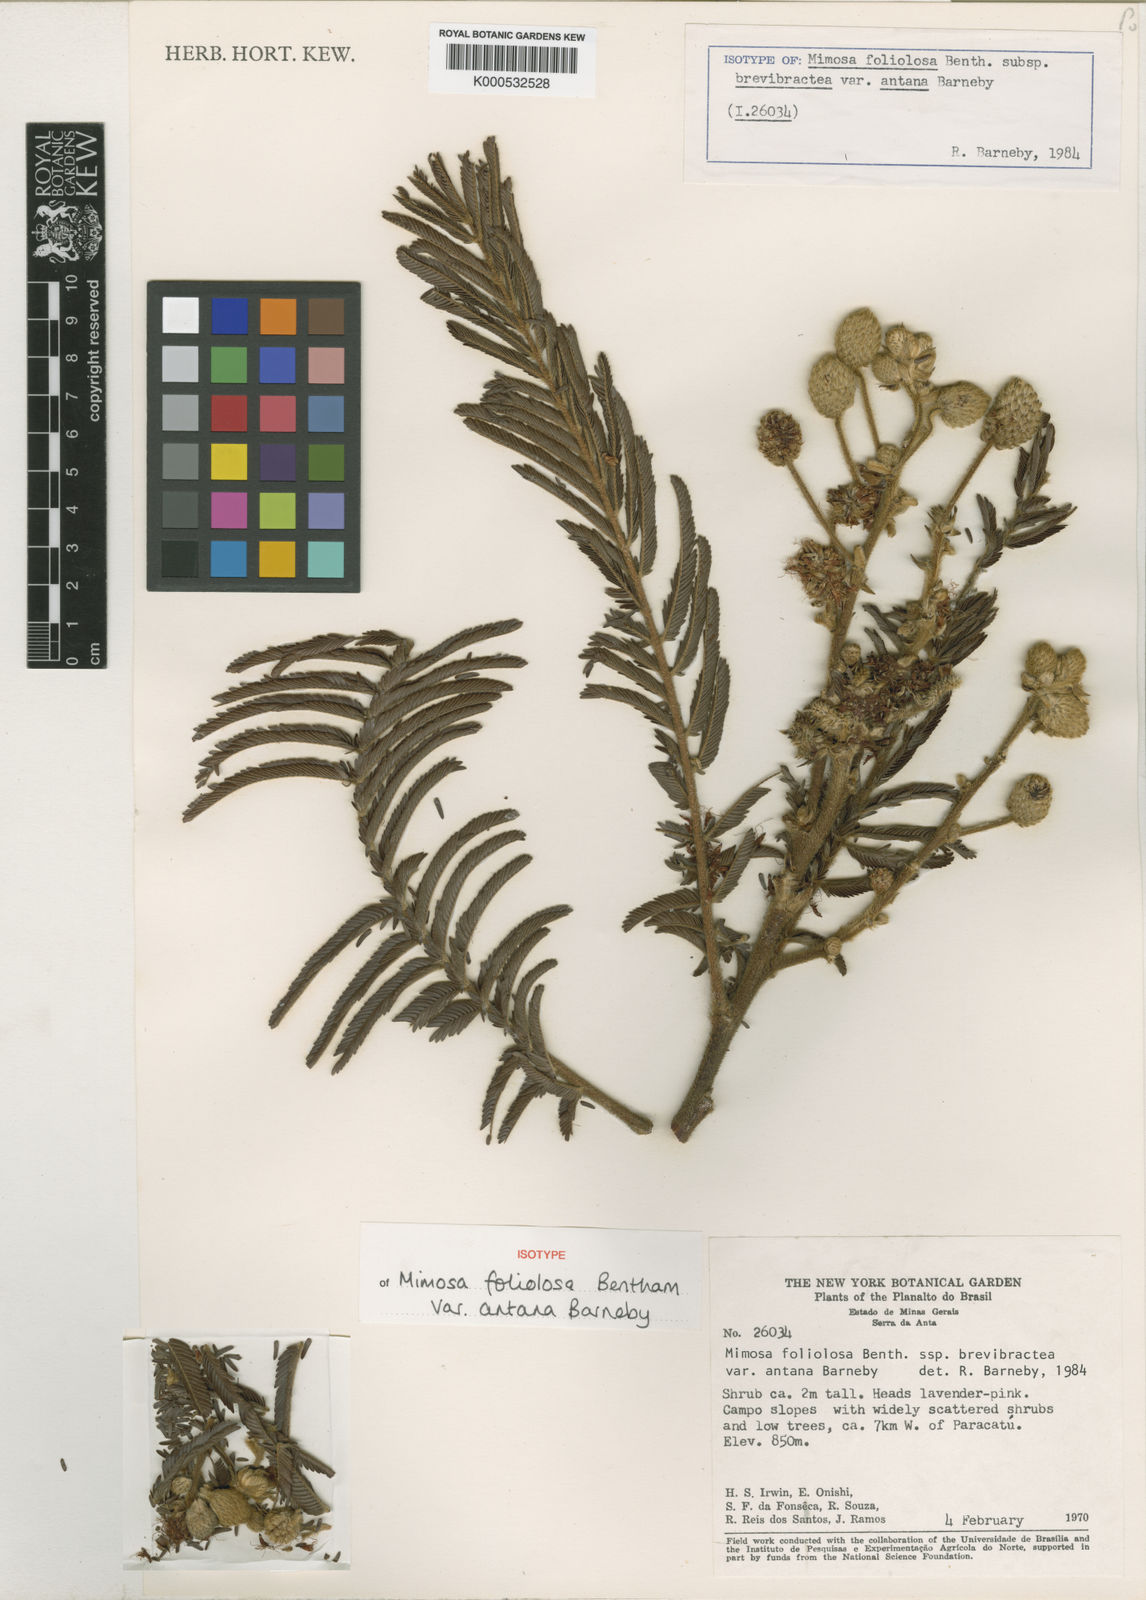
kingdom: Plantae
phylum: Tracheophyta
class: Magnoliopsida
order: Fabales
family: Fabaceae
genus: Mimosa
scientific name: Mimosa foliolosa
